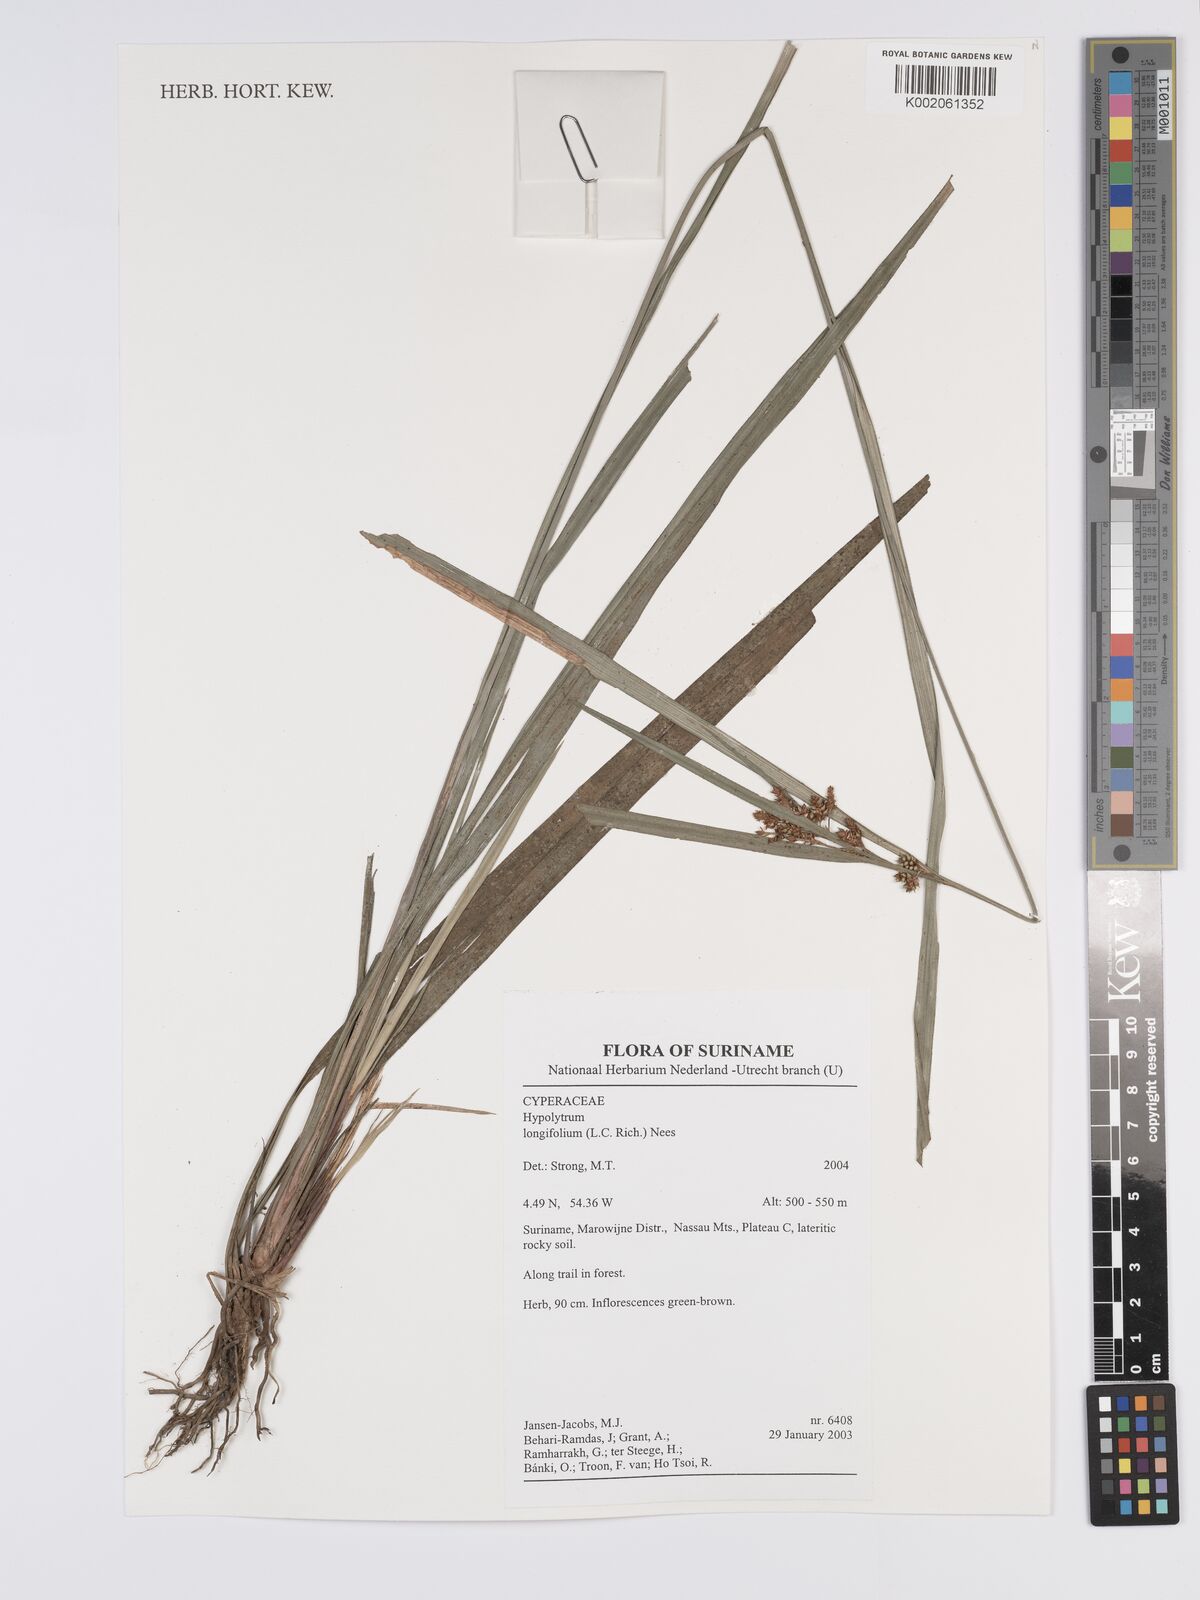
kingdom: Plantae
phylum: Tracheophyta
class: Liliopsida
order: Poales
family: Cyperaceae
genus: Hypolytrum
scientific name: Hypolytrum longifolium
